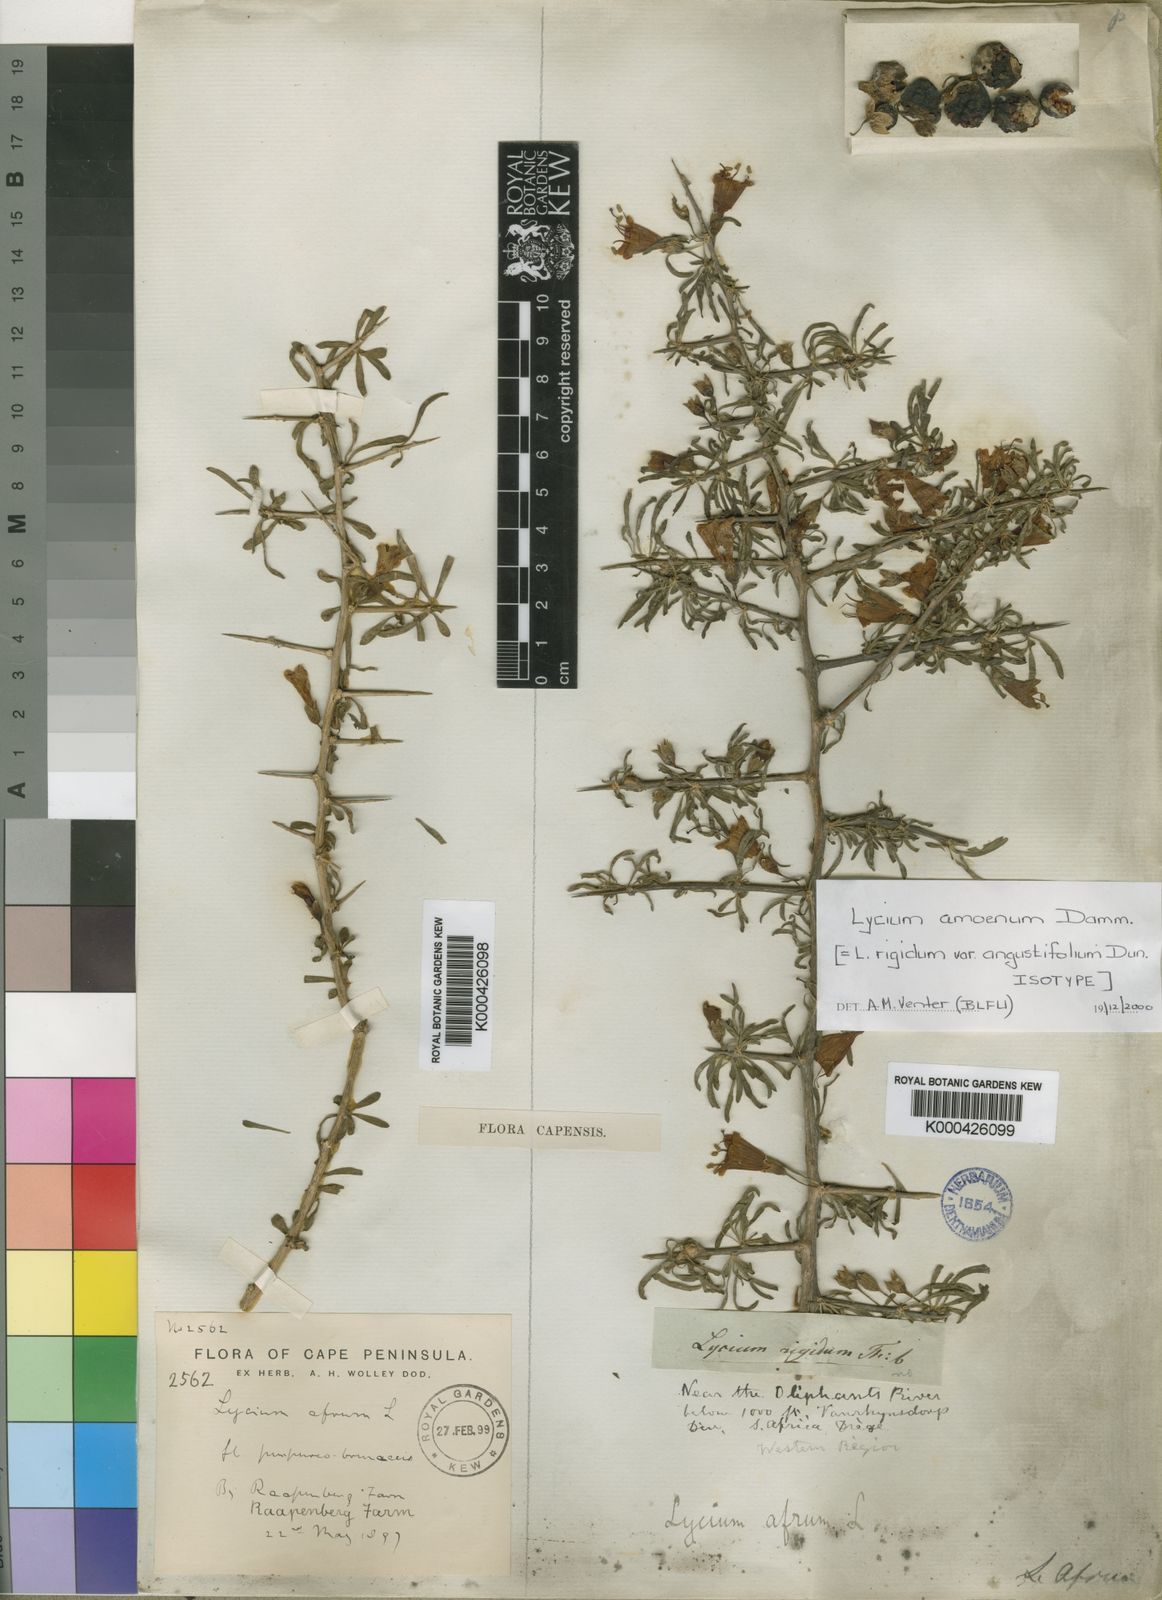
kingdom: Plantae
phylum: Tracheophyta
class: Magnoliopsida
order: Solanales
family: Solanaceae
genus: Lycium
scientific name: Lycium amoenum
